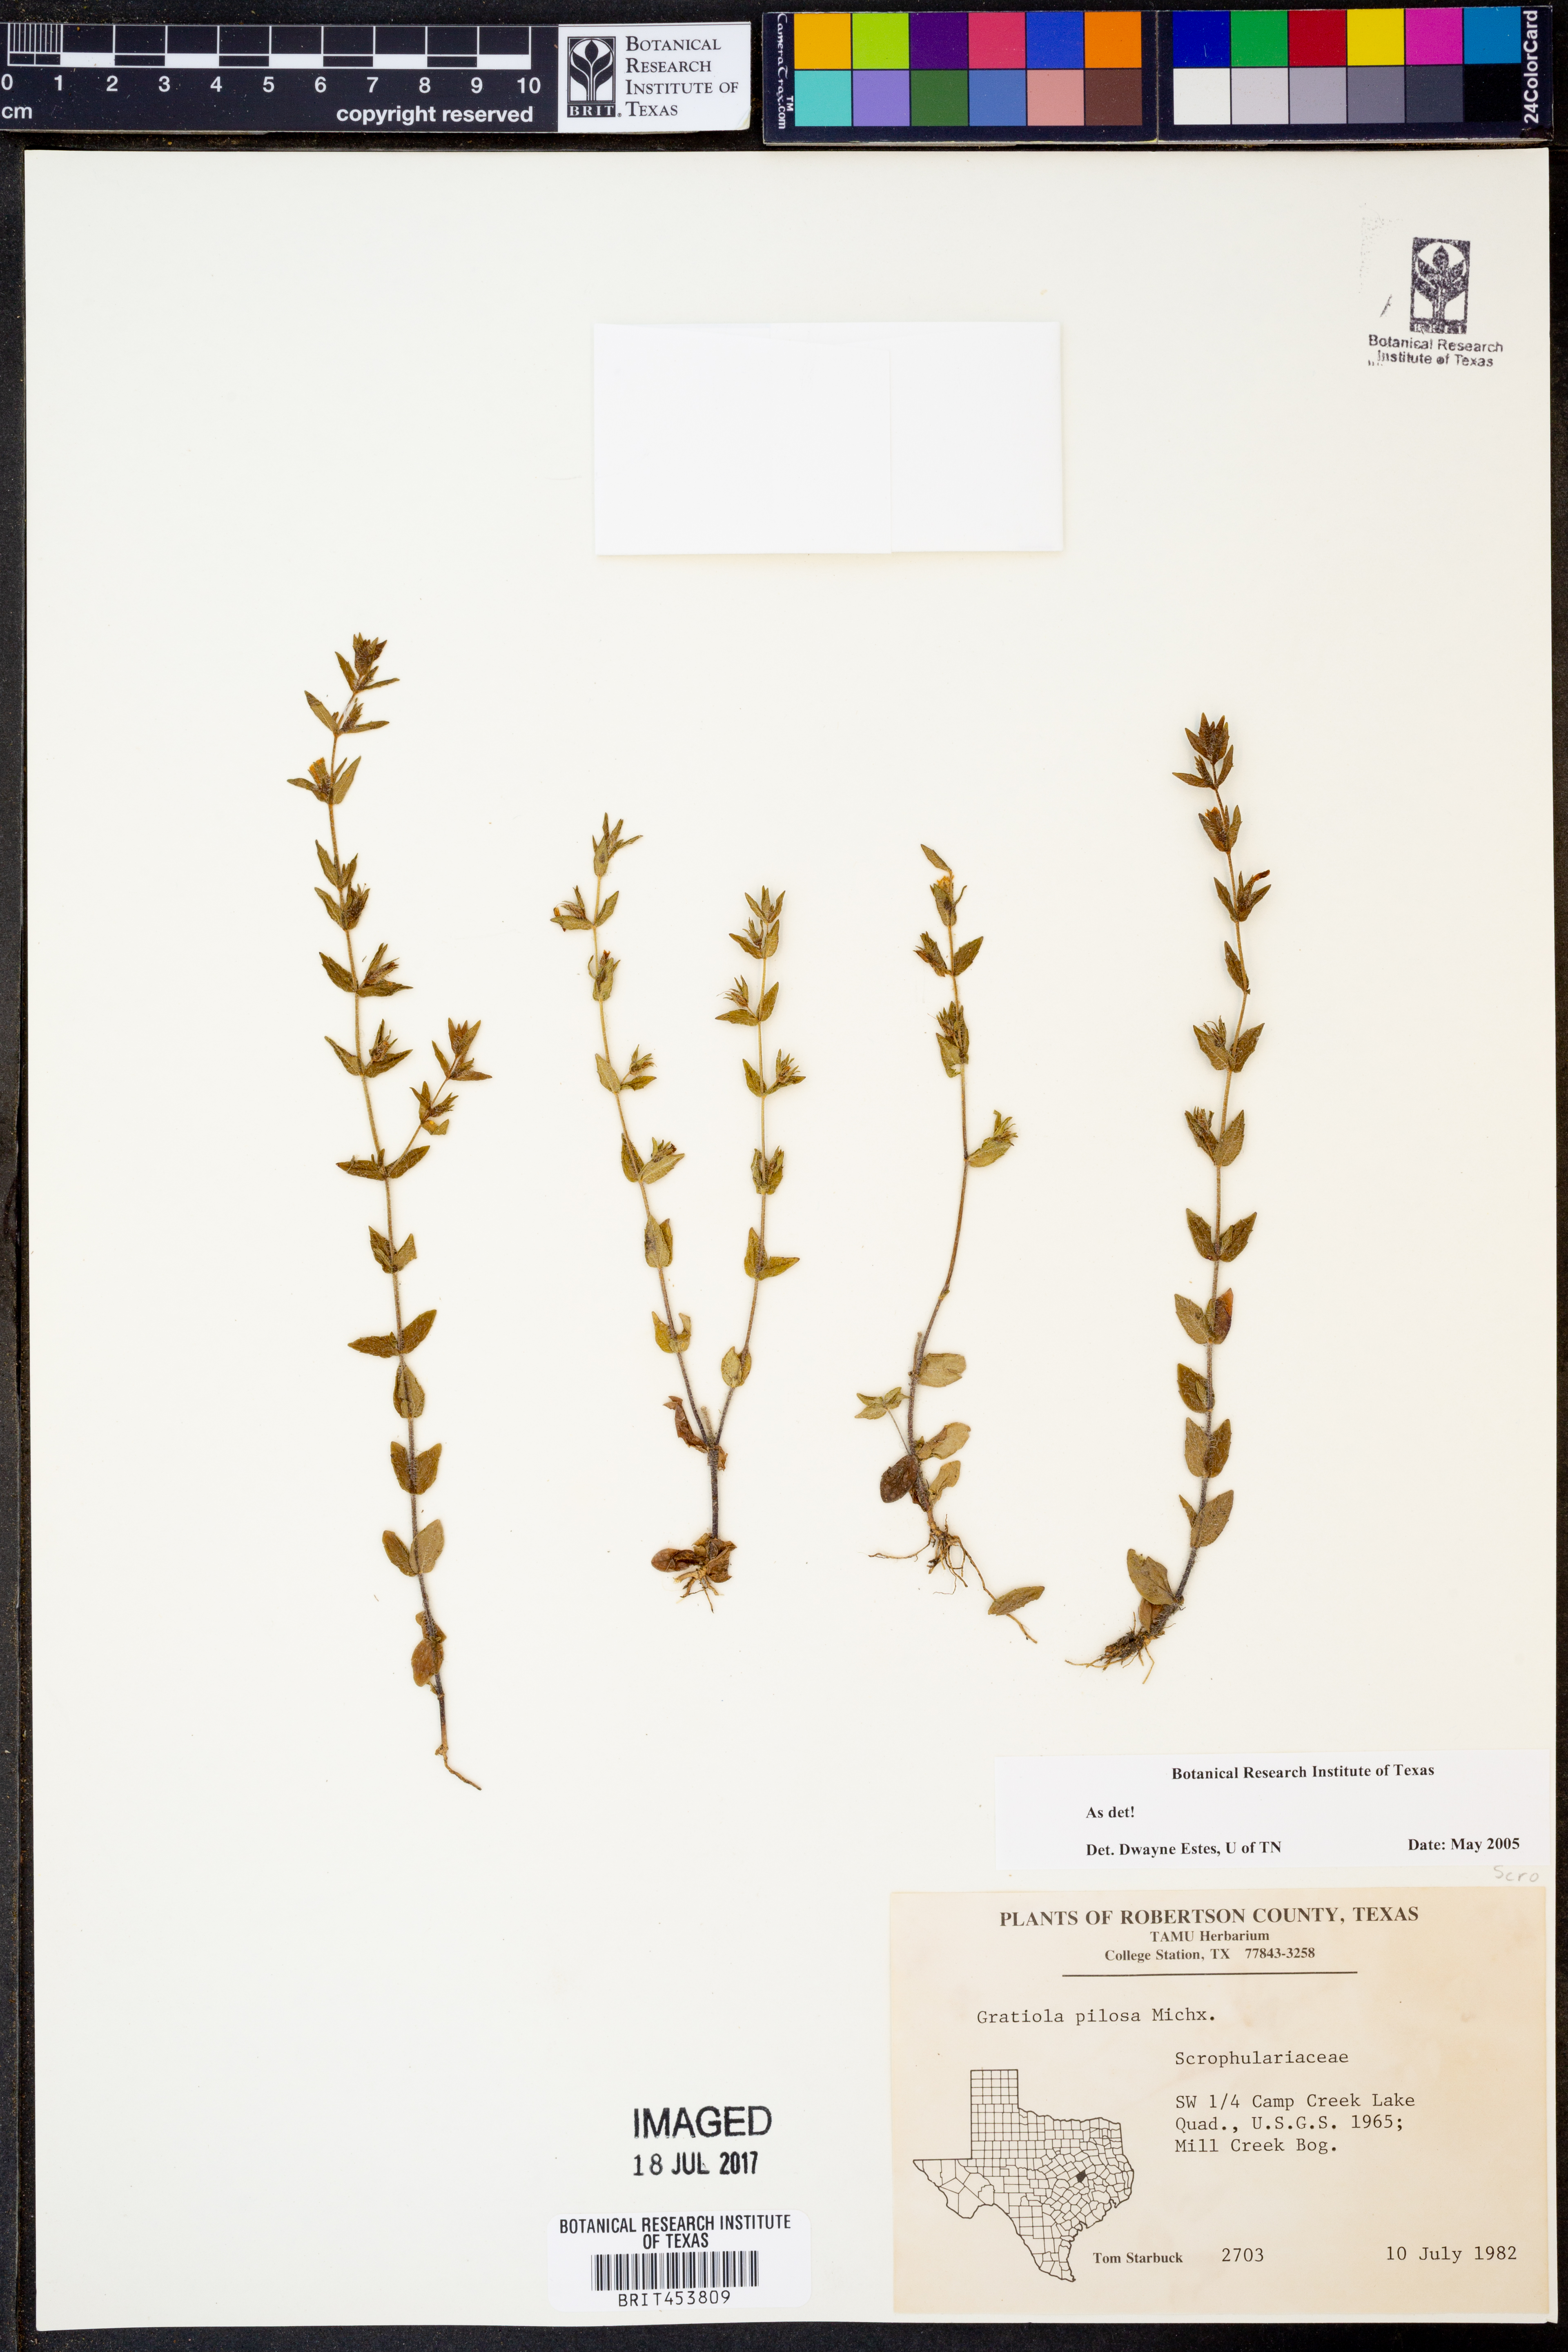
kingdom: Plantae
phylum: Tracheophyta
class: Magnoliopsida
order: Lamiales
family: Plantaginaceae
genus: Gratiola
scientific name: Gratiola pilosa
